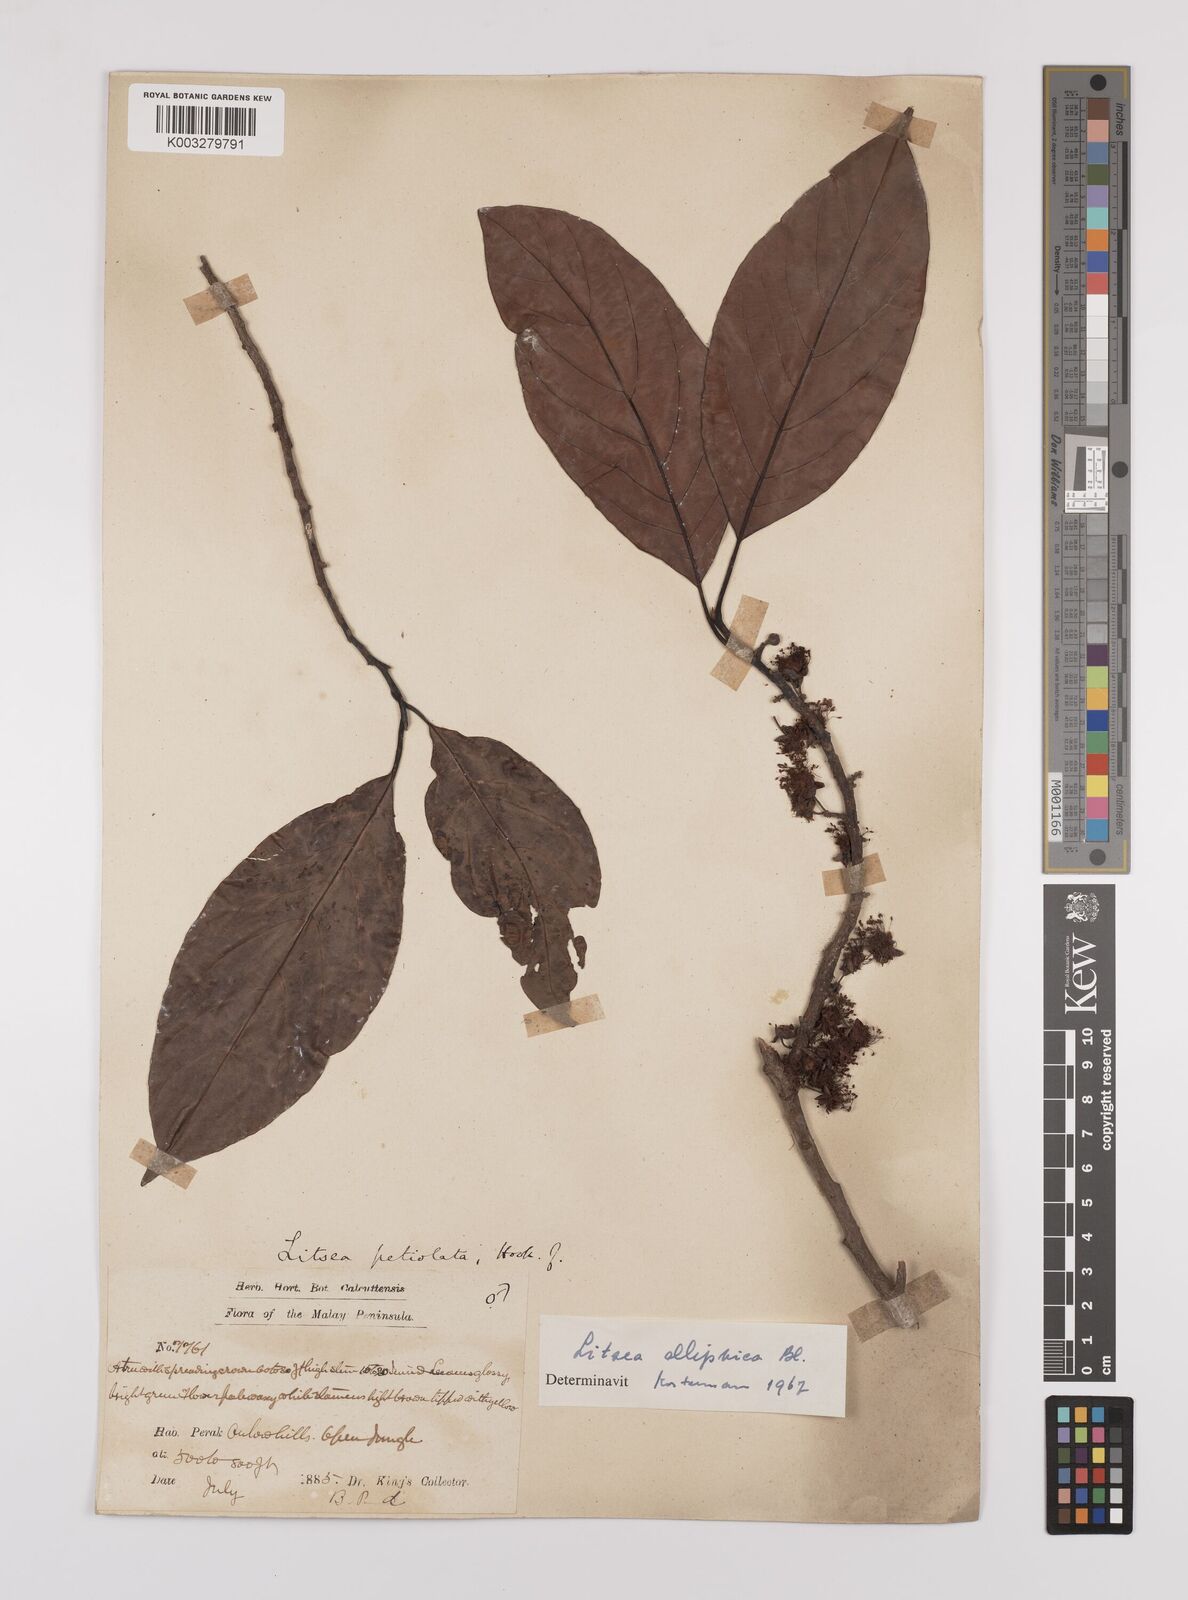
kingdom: Plantae
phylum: Tracheophyta
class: Magnoliopsida
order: Laurales
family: Lauraceae
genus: Litsea
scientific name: Litsea elliptica
